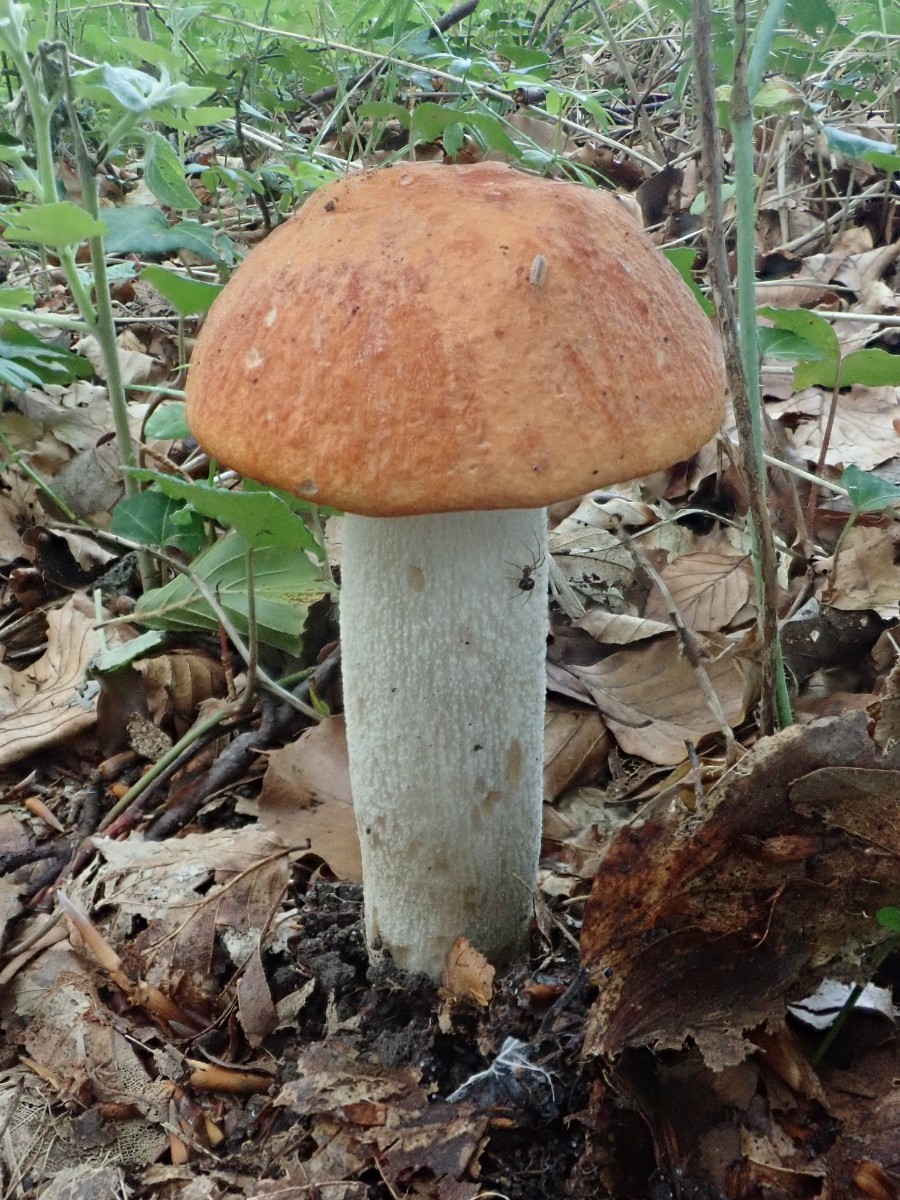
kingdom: Fungi
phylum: Basidiomycota
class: Agaricomycetes
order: Boletales
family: Boletaceae
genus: Leccinum
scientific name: Leccinum albostipitatum
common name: aspe-skælrørhat
